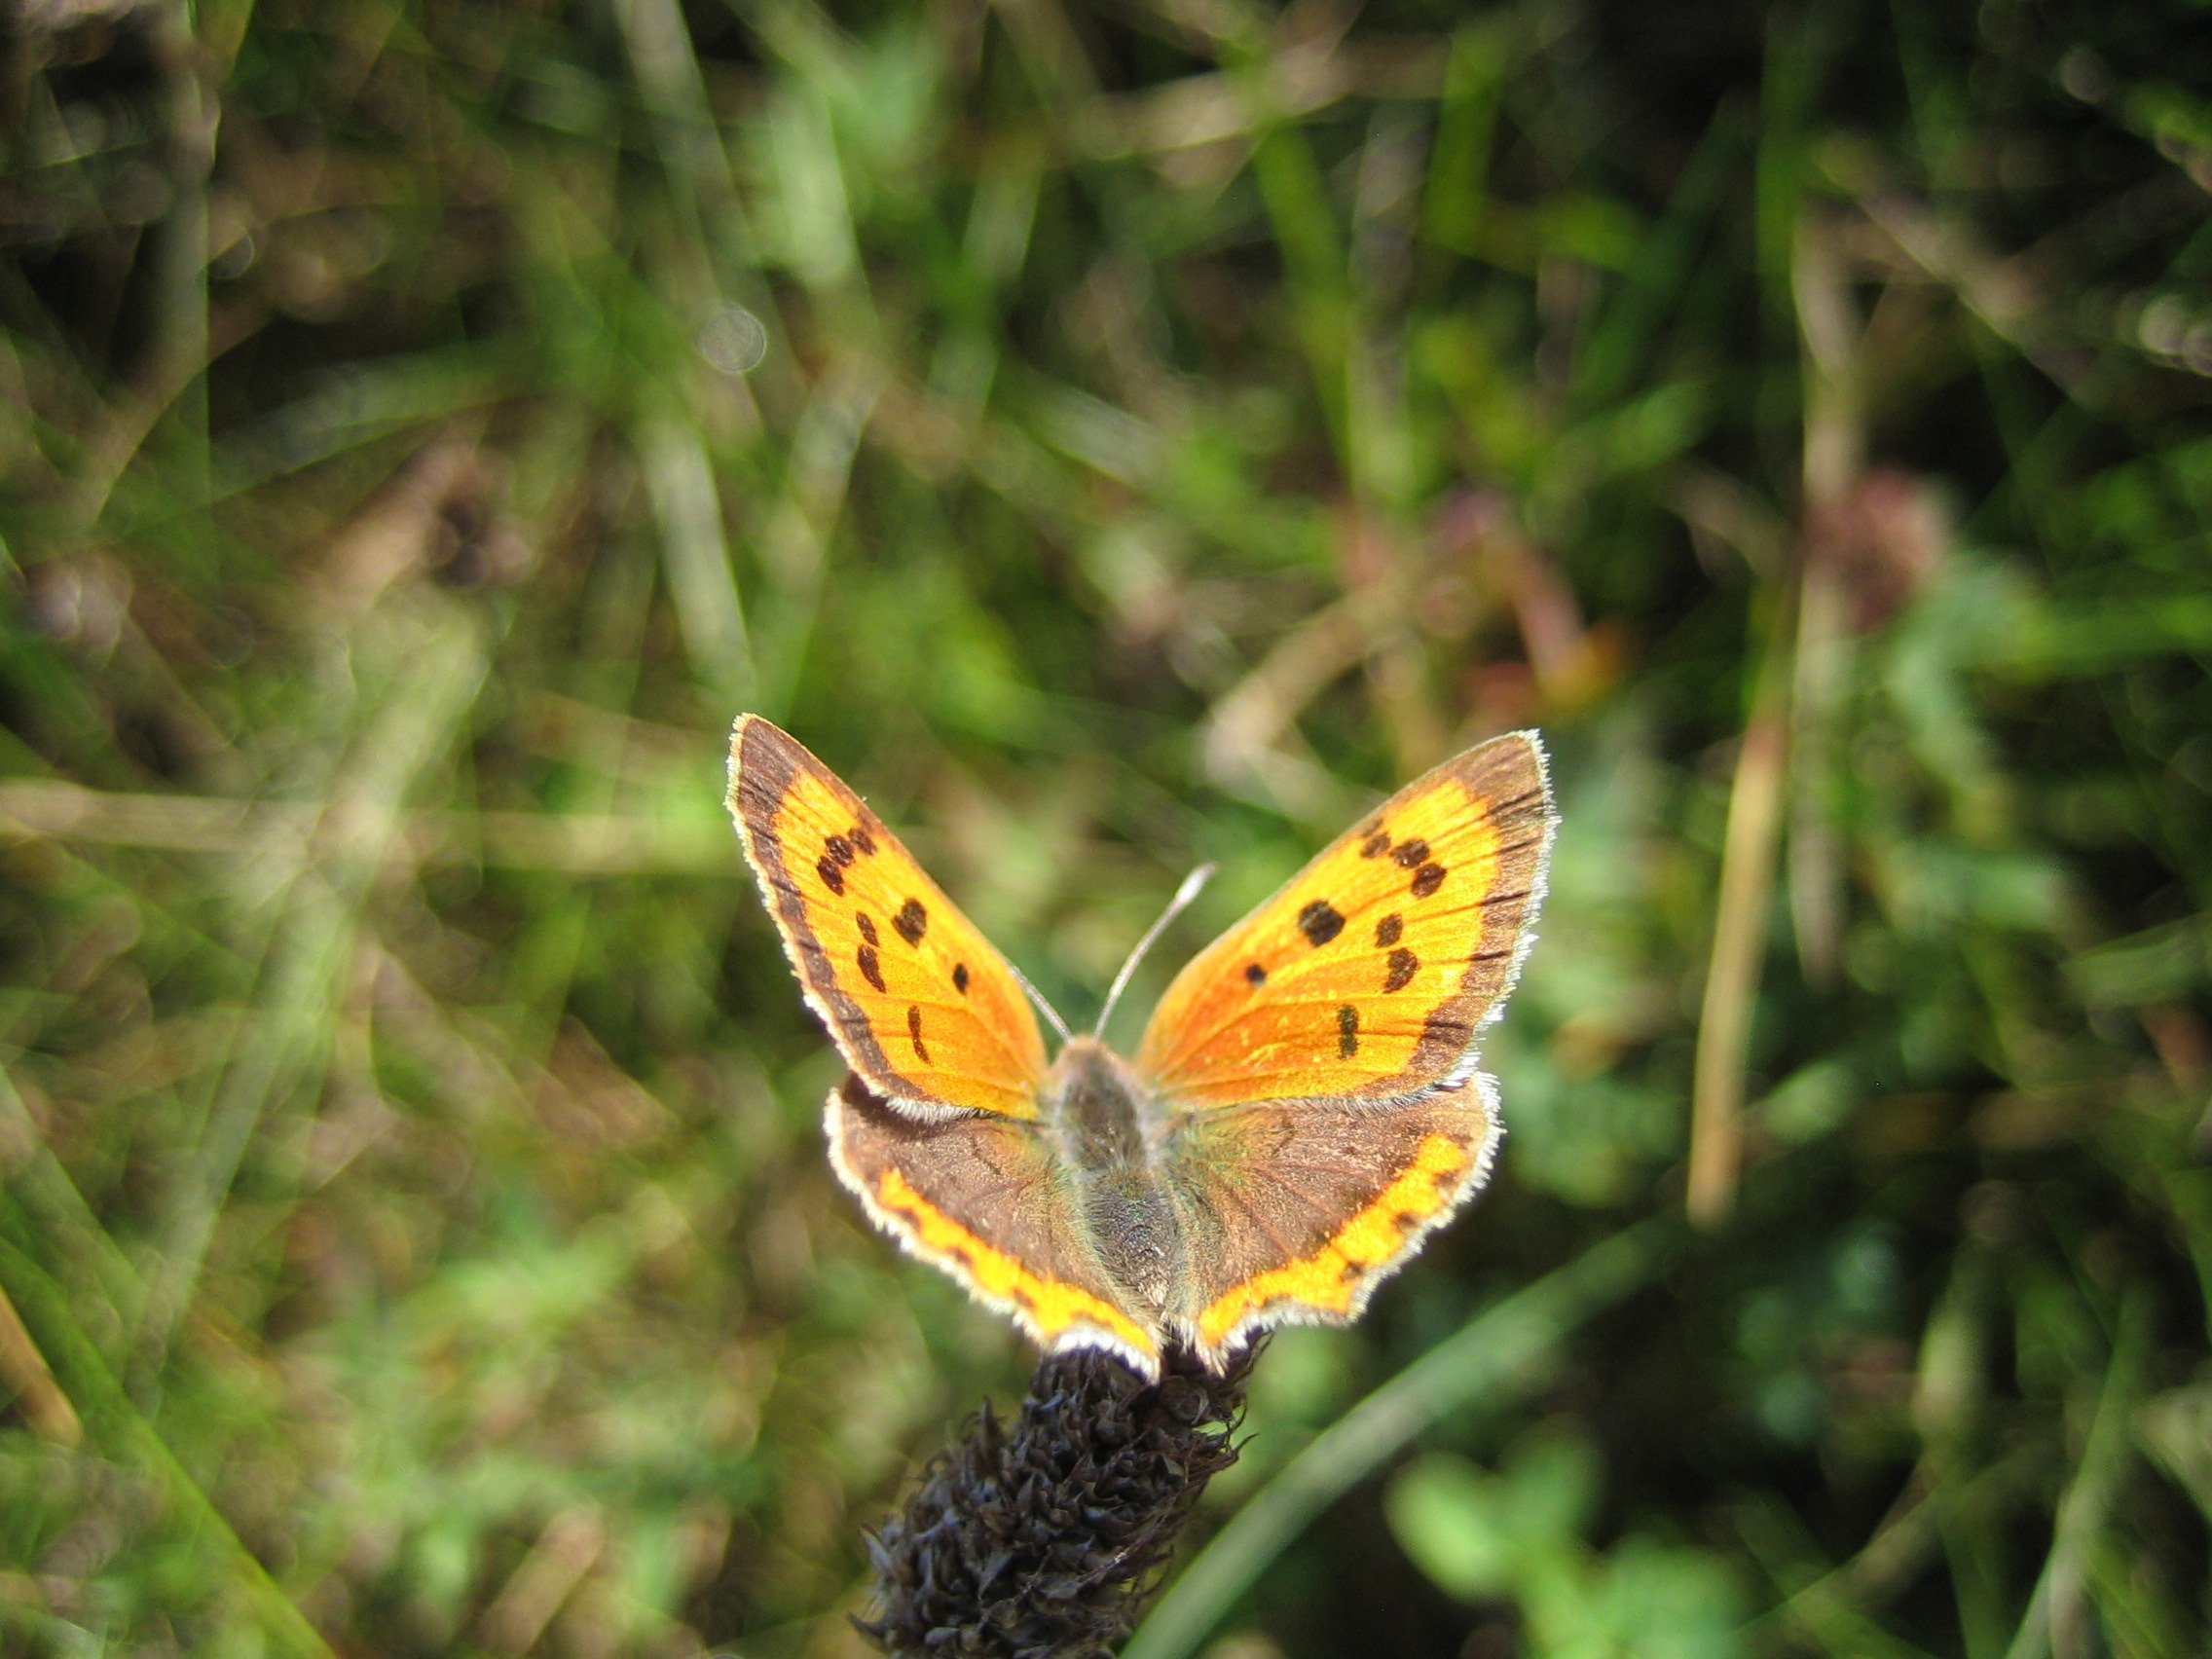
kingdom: Animalia
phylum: Arthropoda
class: Insecta
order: Lepidoptera
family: Lycaenidae
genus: Lycaena
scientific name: Lycaena phlaeas
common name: Lille ildfugl
